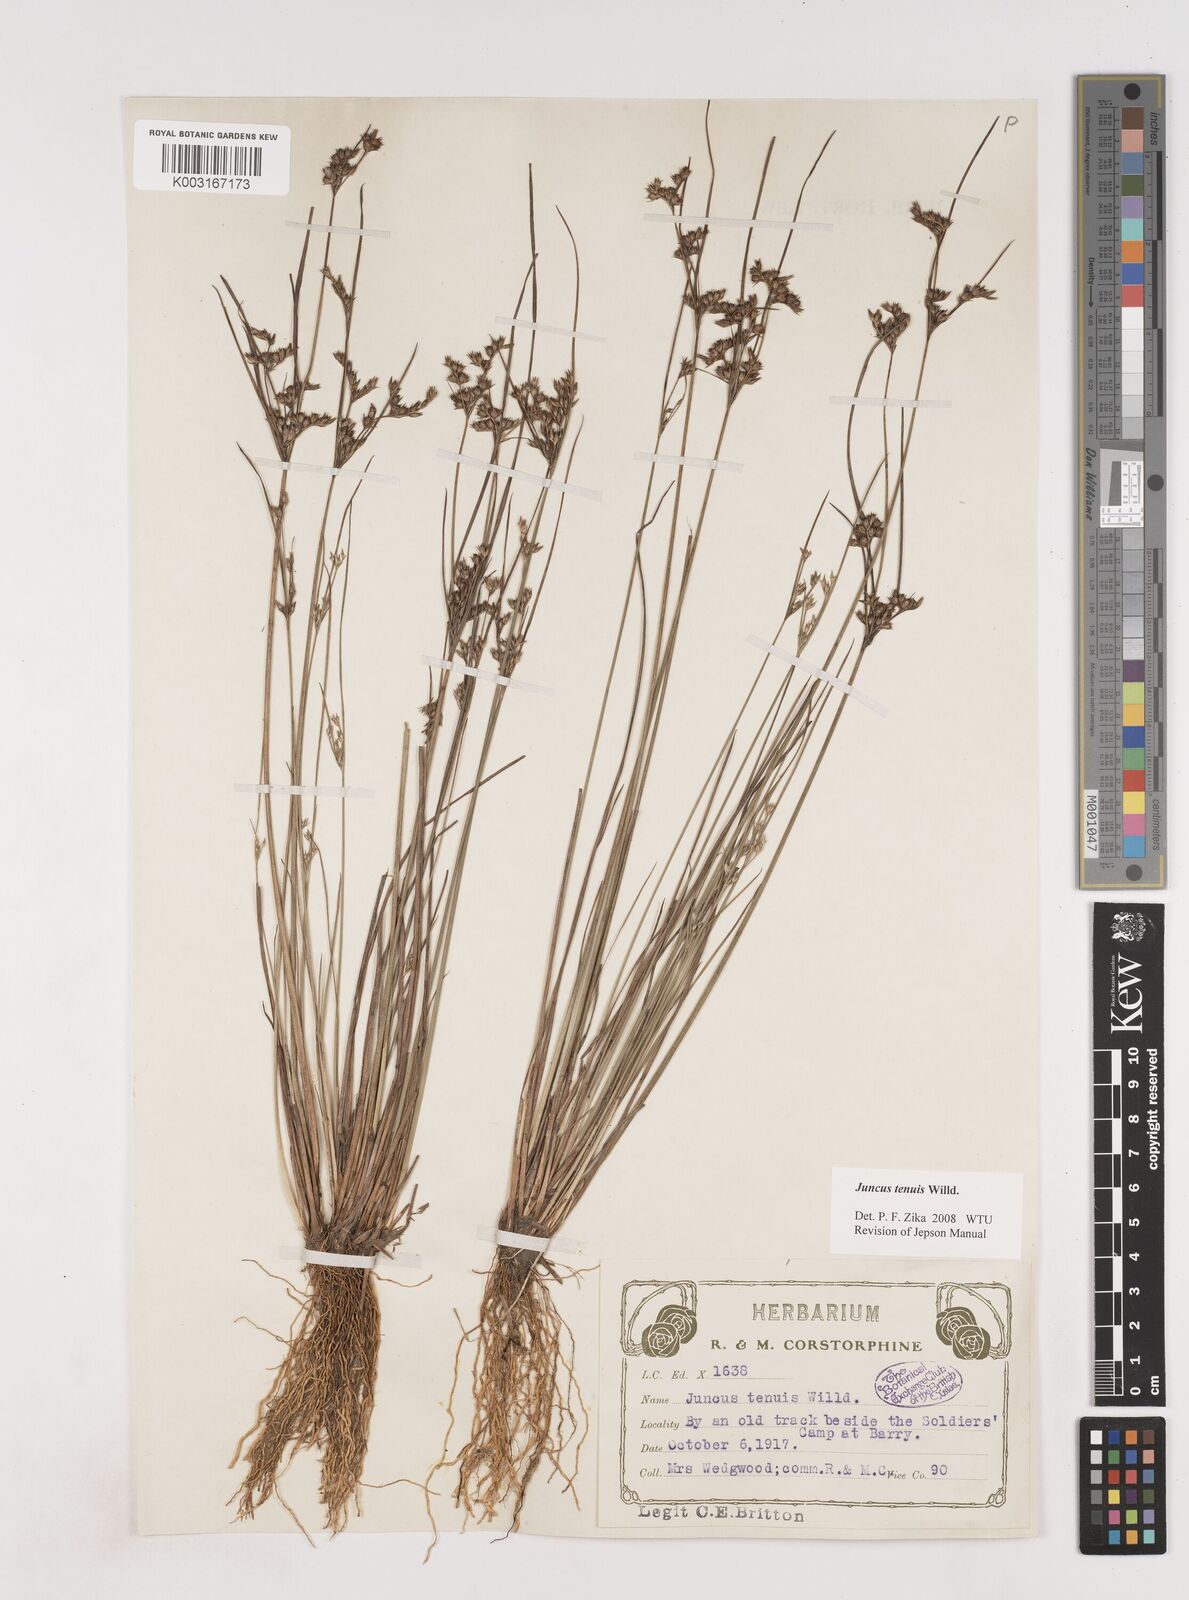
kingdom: Plantae
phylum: Tracheophyta
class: Liliopsida
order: Poales
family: Juncaceae
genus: Juncus
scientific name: Juncus tenuis
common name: Slender rush
